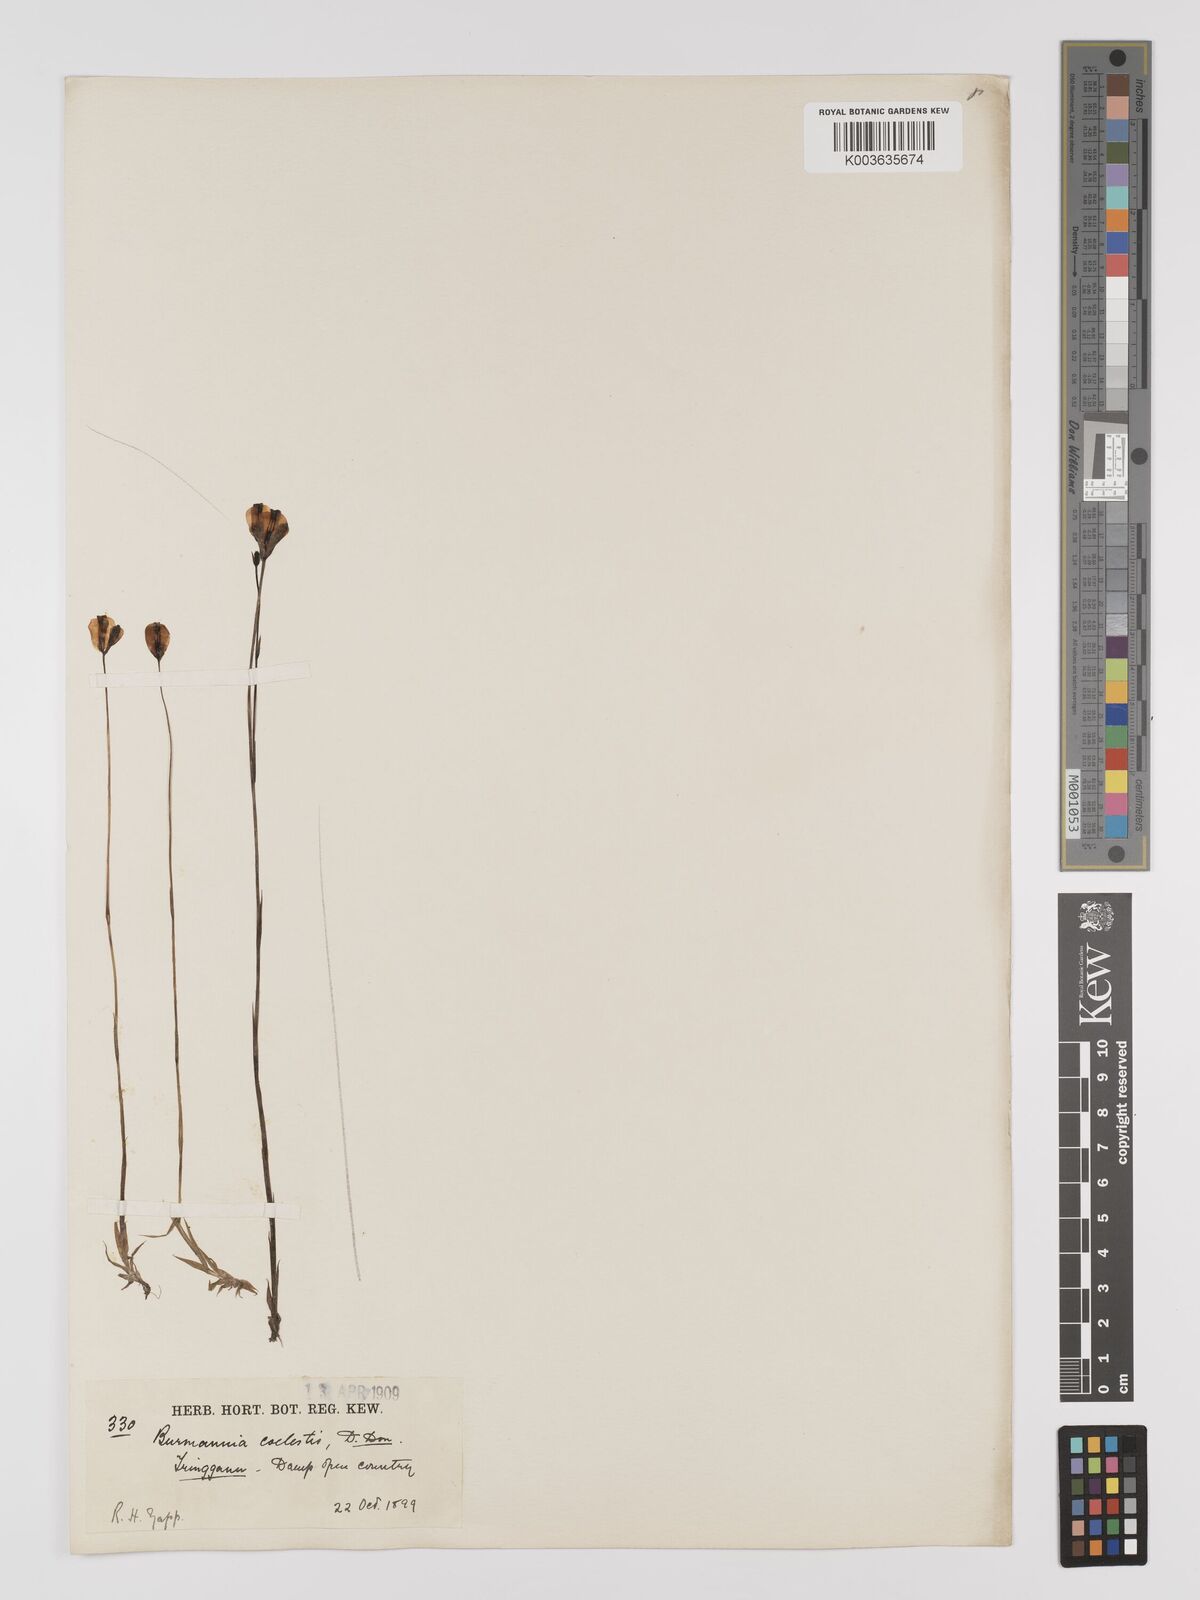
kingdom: Plantae
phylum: Tracheophyta
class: Liliopsida
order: Dioscoreales
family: Burmanniaceae
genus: Burmannia
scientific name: Burmannia coelestis
